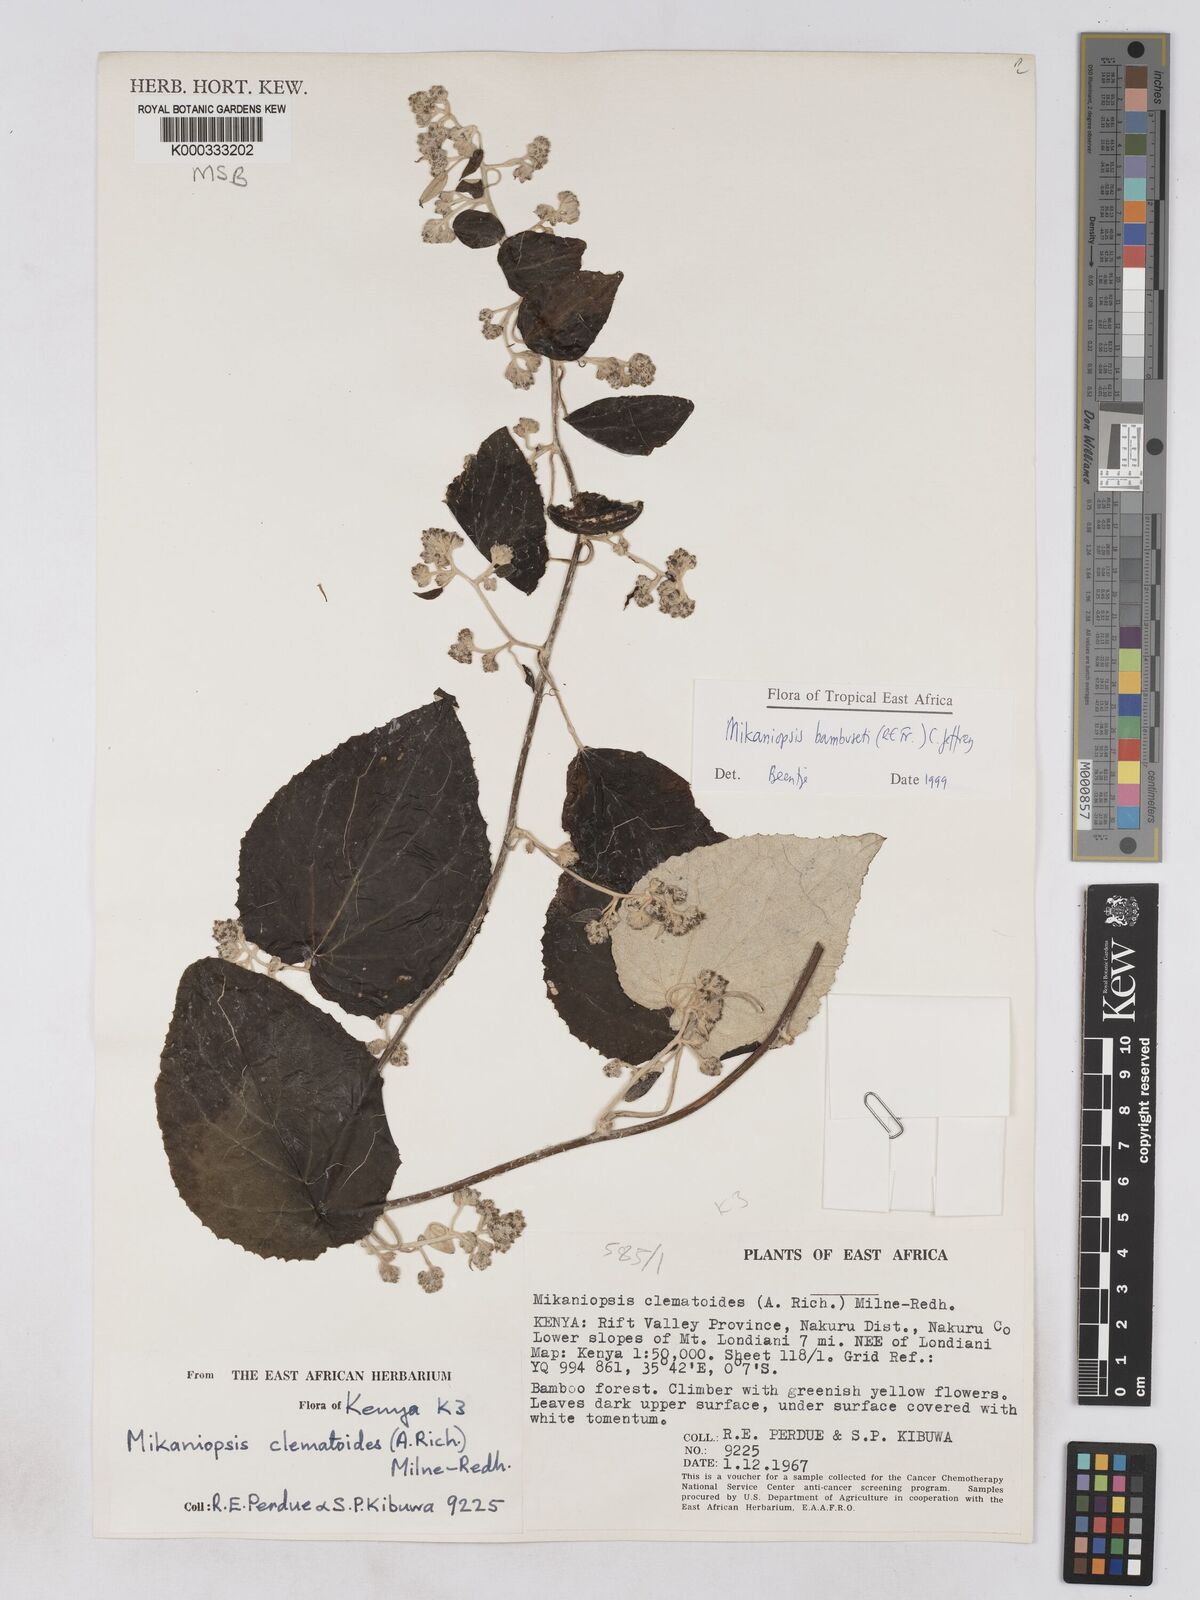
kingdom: Plantae
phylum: Tracheophyta
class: Magnoliopsida
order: Asterales
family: Asteraceae
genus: Mikaniopsis
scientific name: Mikaniopsis bambuseti
